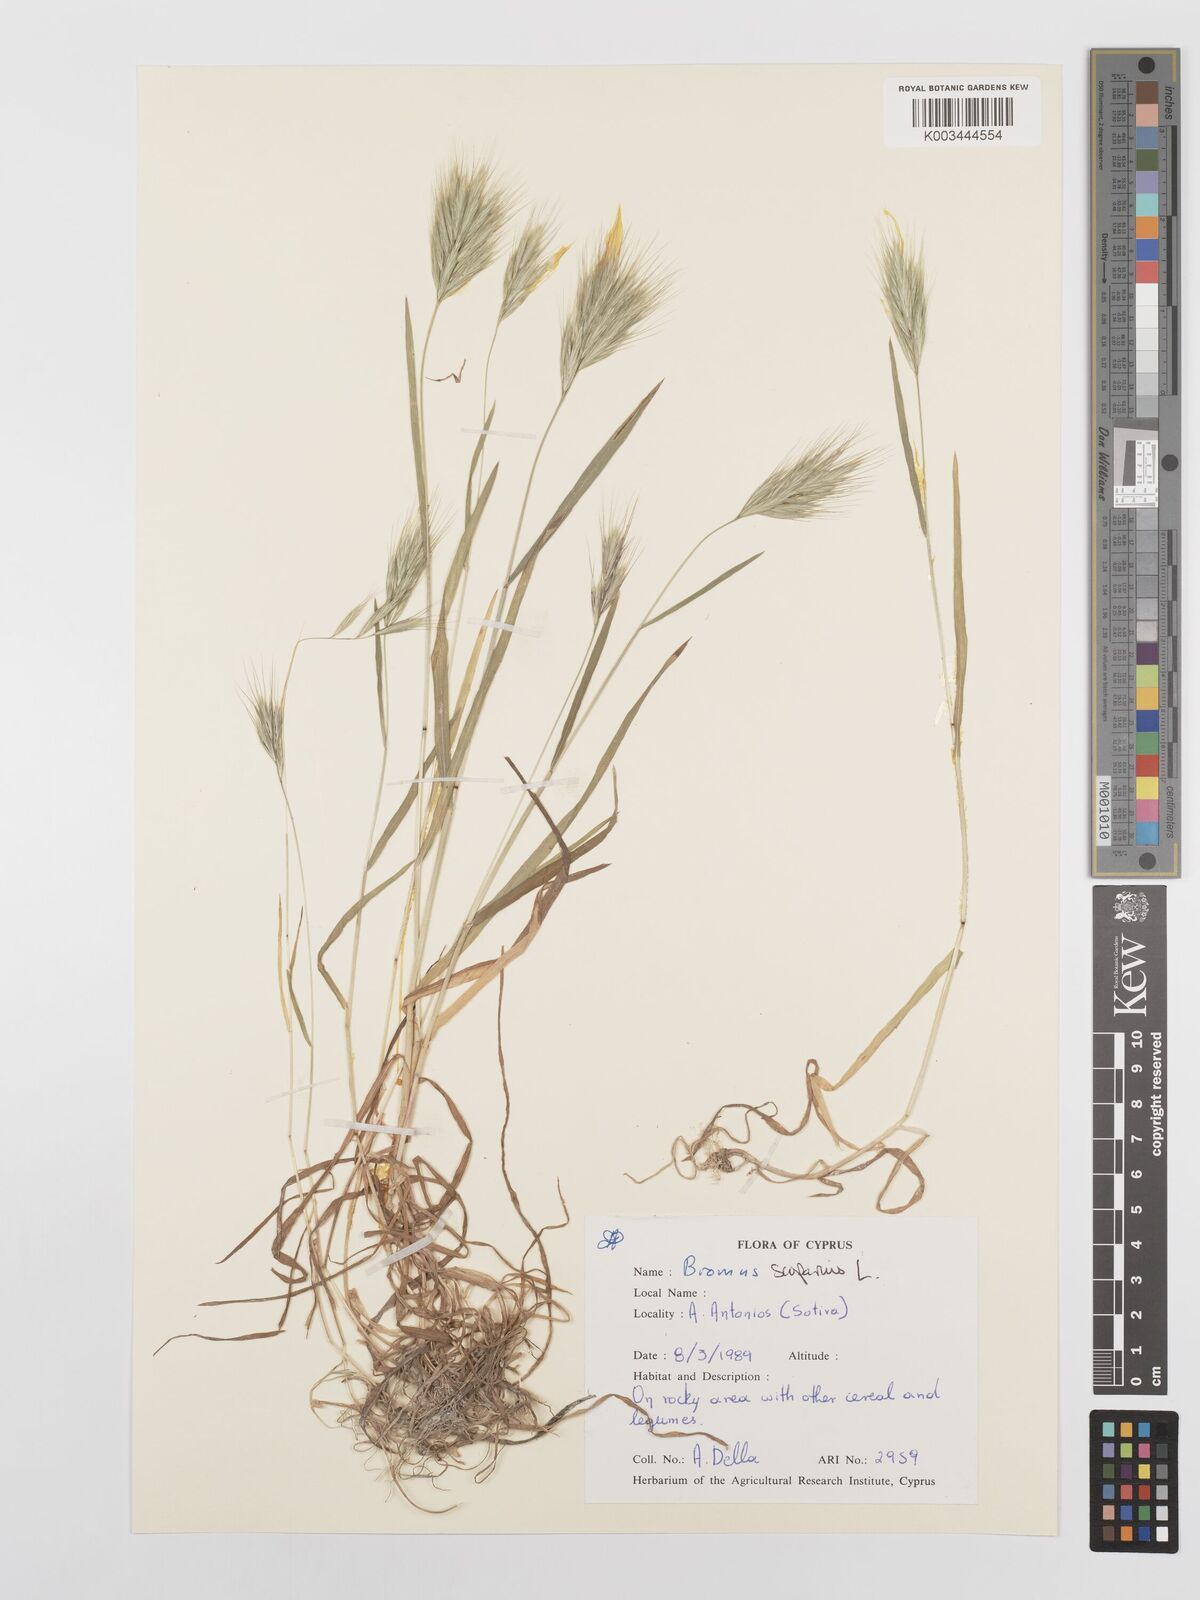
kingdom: Plantae
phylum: Tracheophyta
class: Liliopsida
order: Poales
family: Poaceae
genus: Bromus
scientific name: Bromus scoparius
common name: Broom brome
